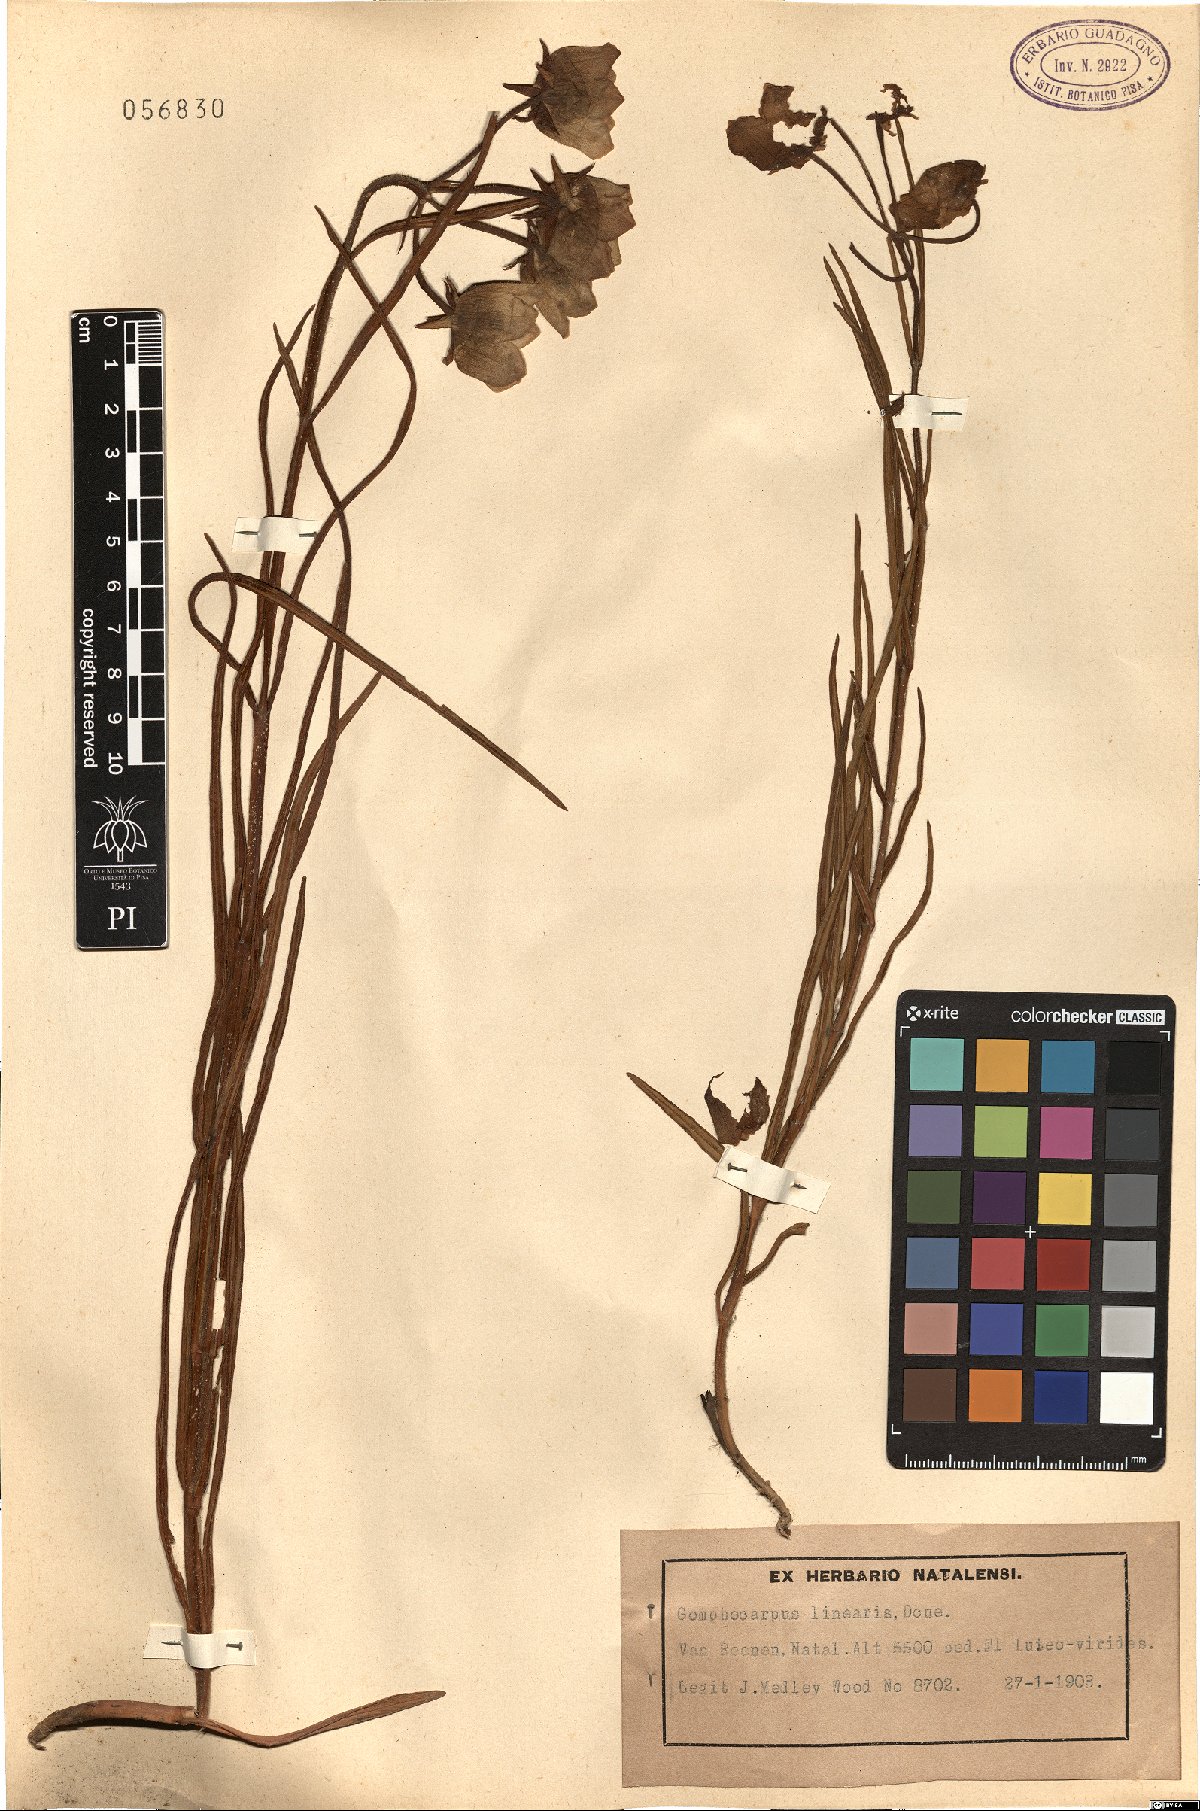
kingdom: Plantae
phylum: Tracheophyta
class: Magnoliopsida
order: Gentianales
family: Apocynaceae
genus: Pachycarpus
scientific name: Pachycarpus linearis
